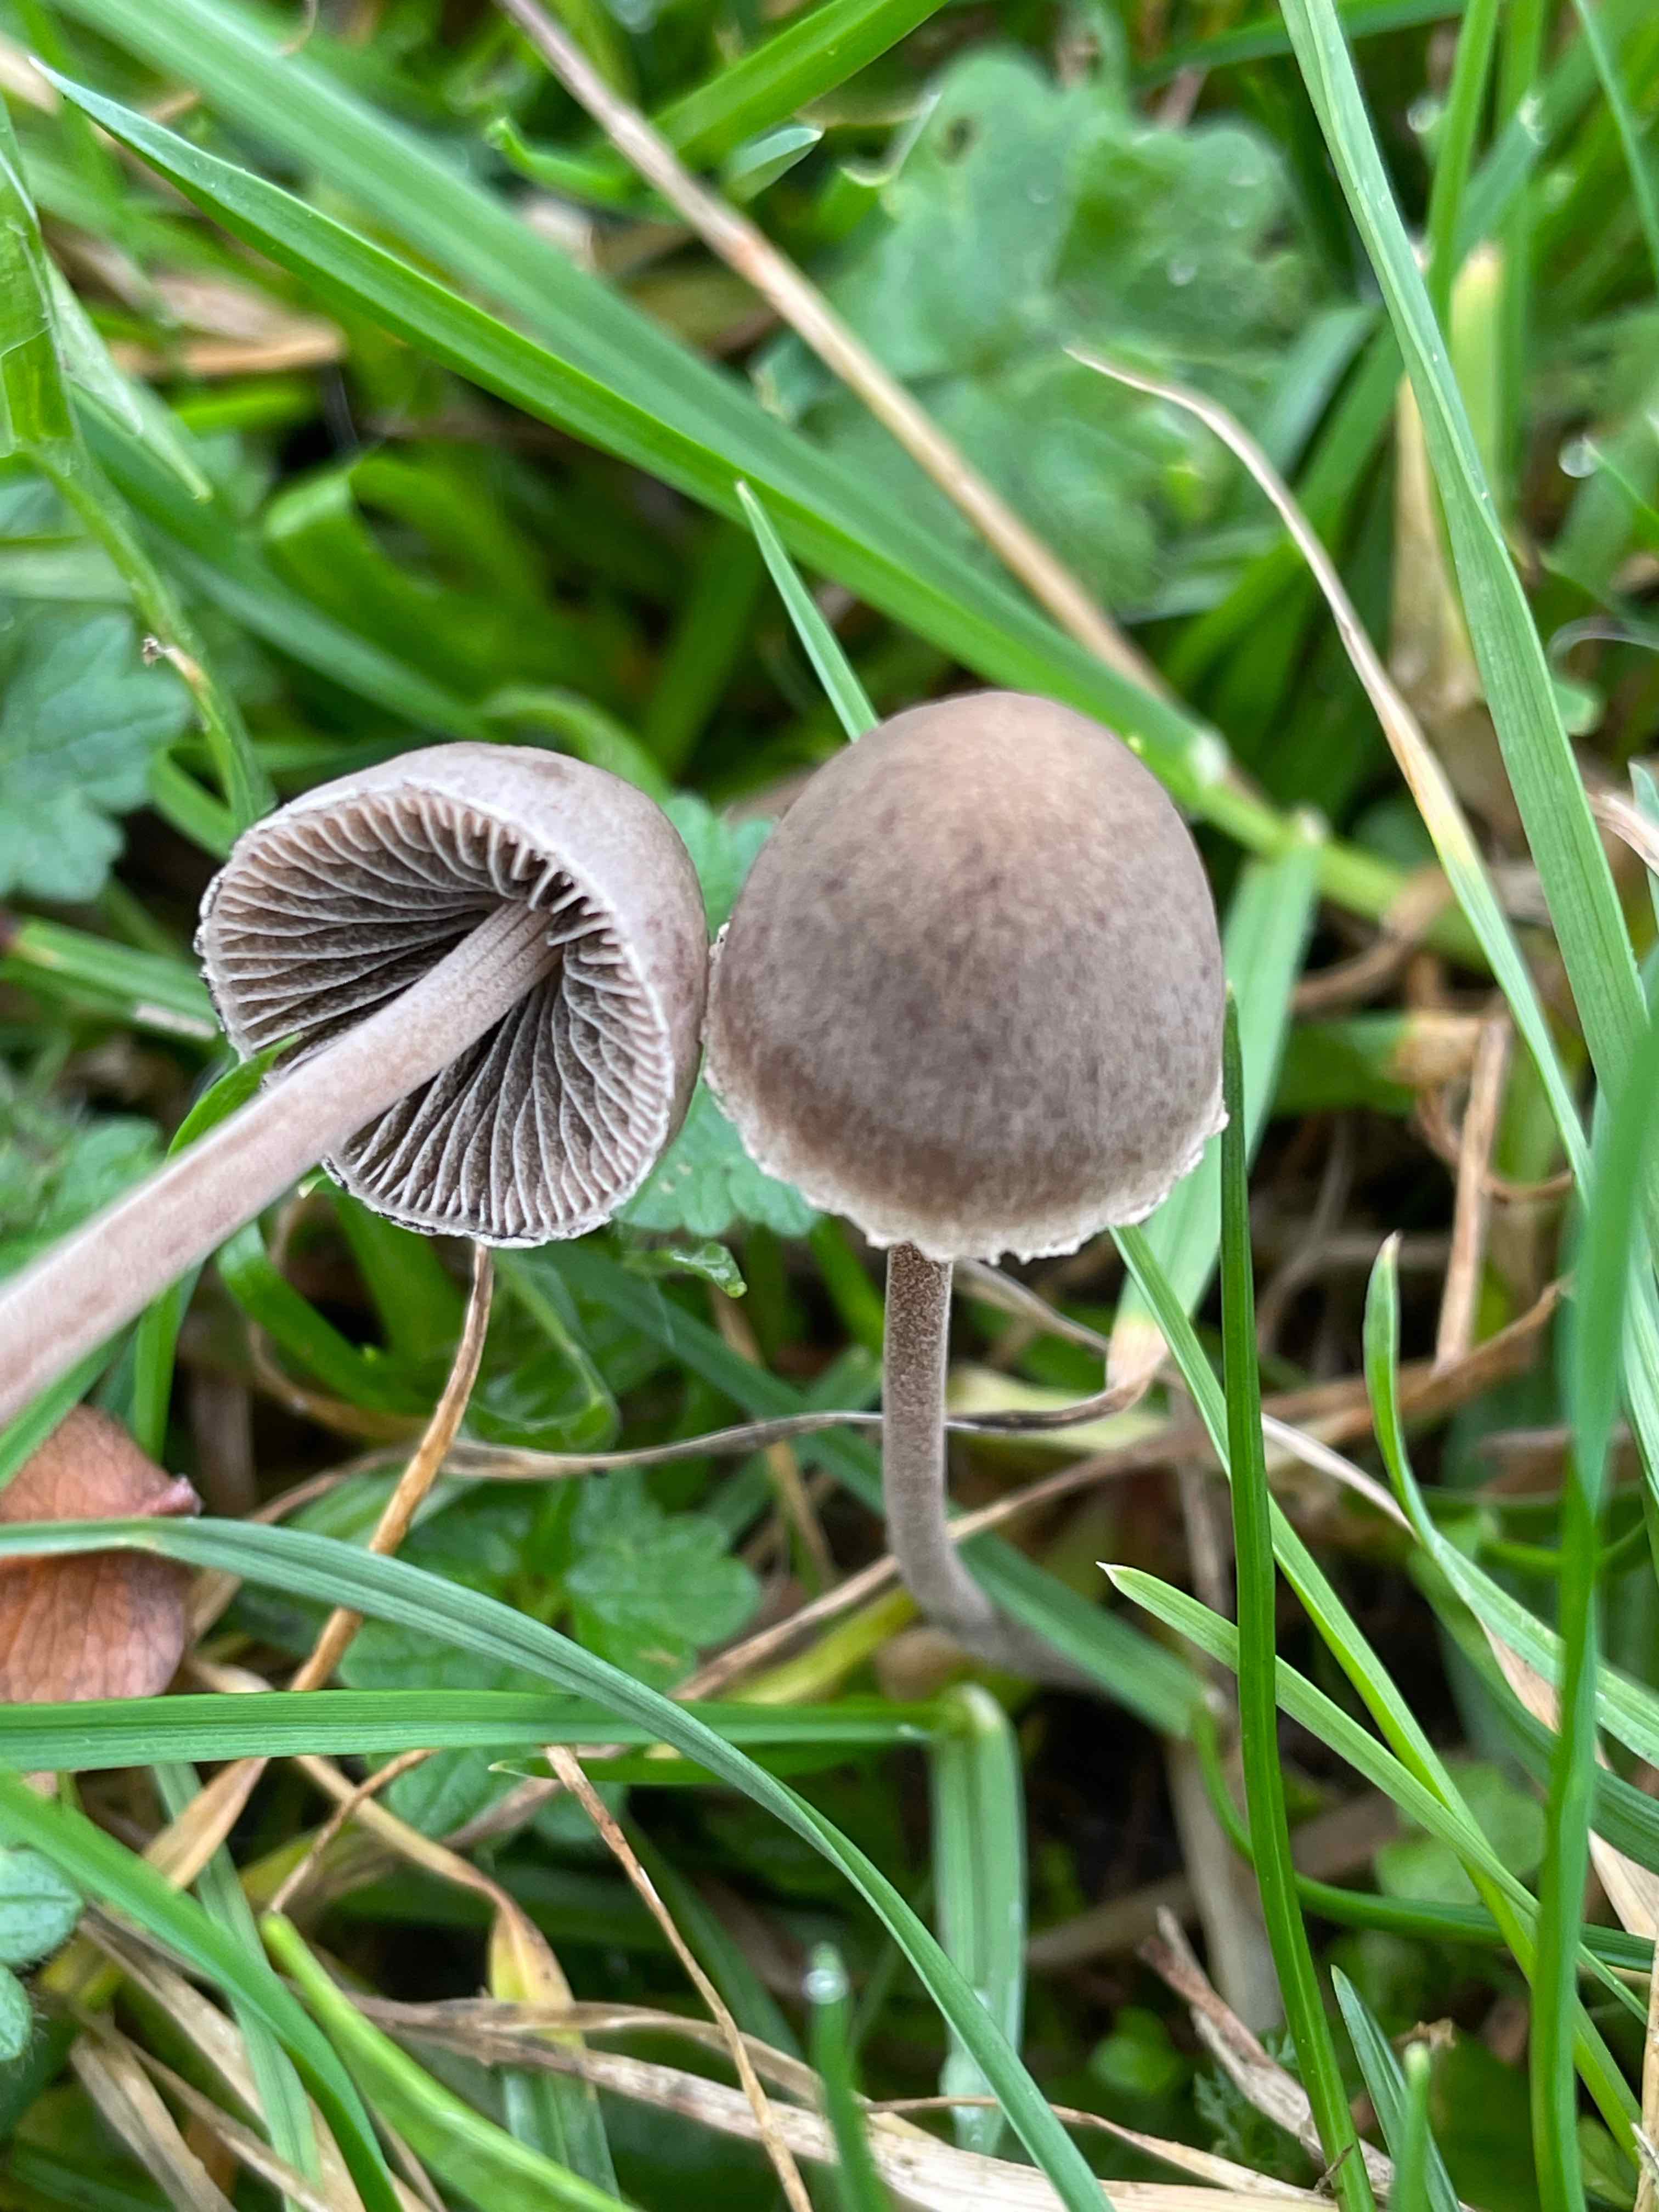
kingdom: Fungi
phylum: Basidiomycota
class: Agaricomycetes
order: Agaricales
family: Bolbitiaceae
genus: Panaeolus
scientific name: Panaeolus papilionaceus
